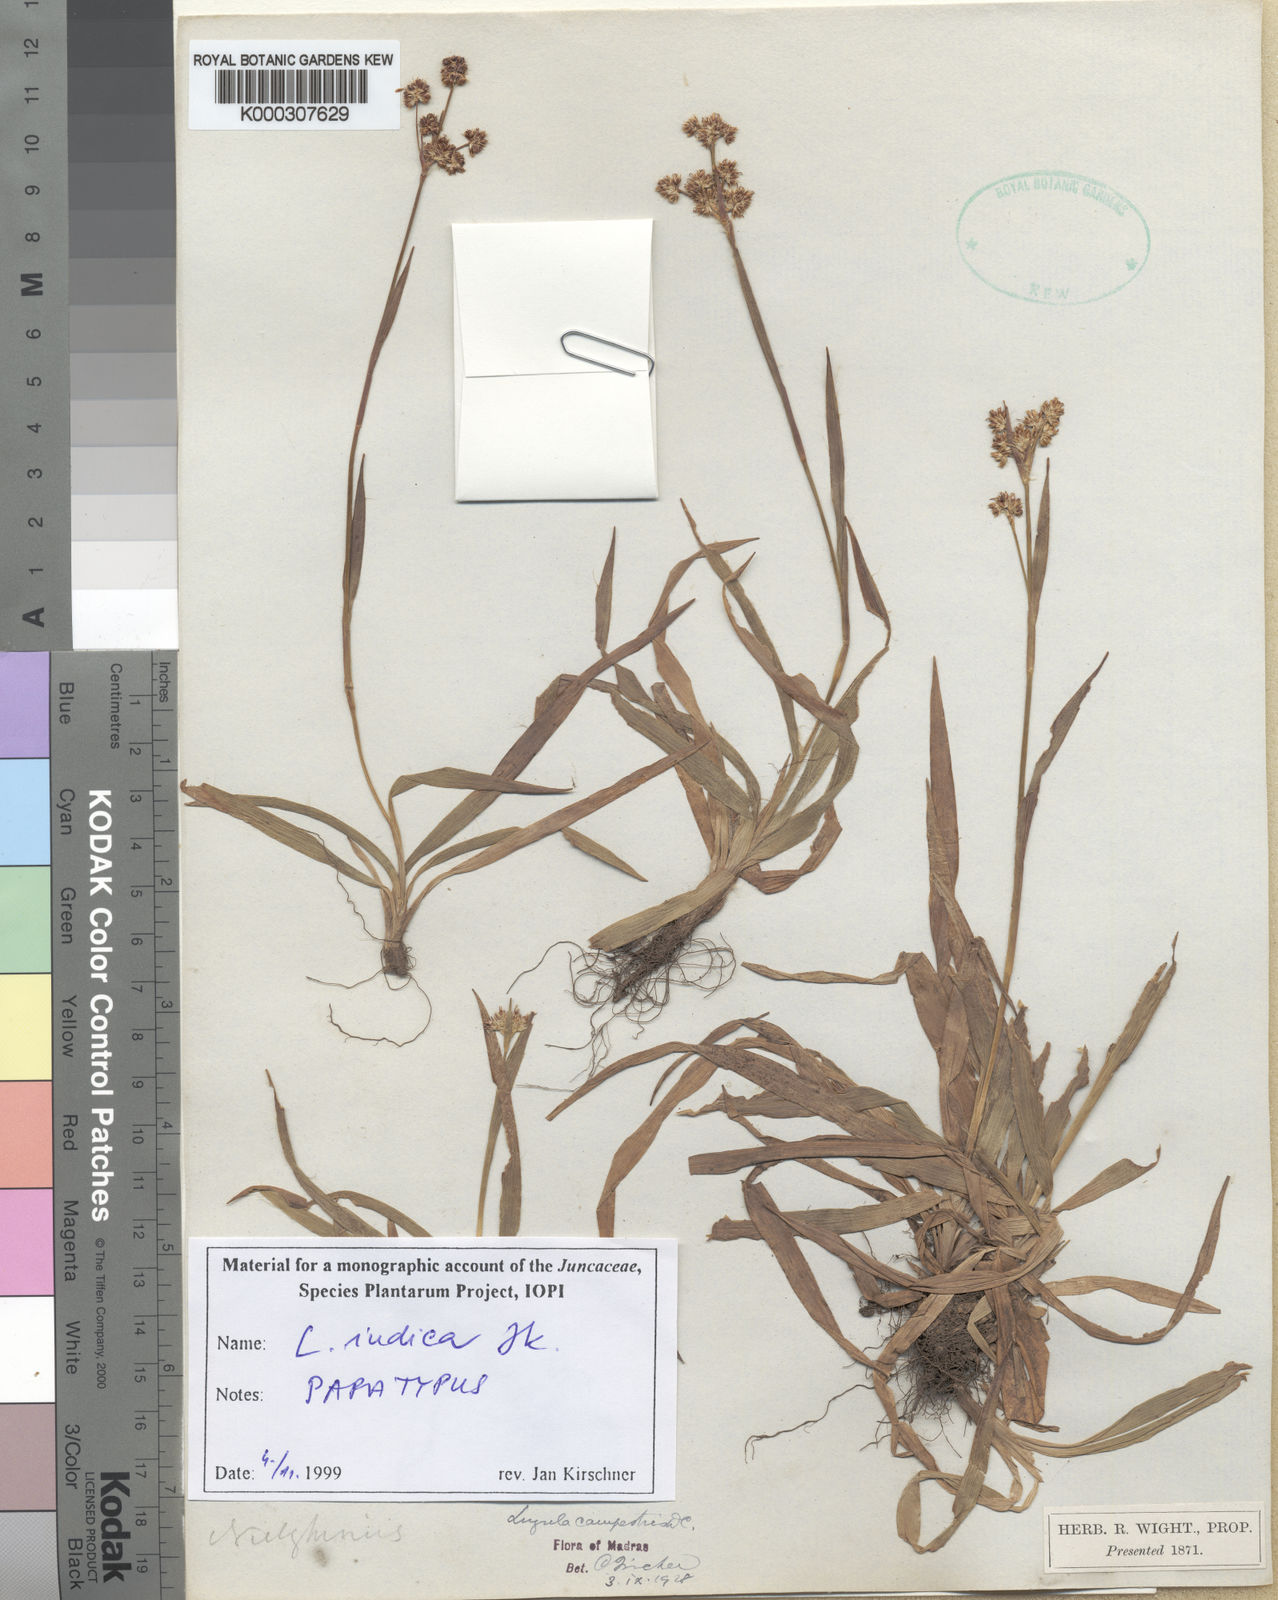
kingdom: Plantae
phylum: Tracheophyta
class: Liliopsida
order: Poales
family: Juncaceae
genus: Luzula
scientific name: Luzula indica
